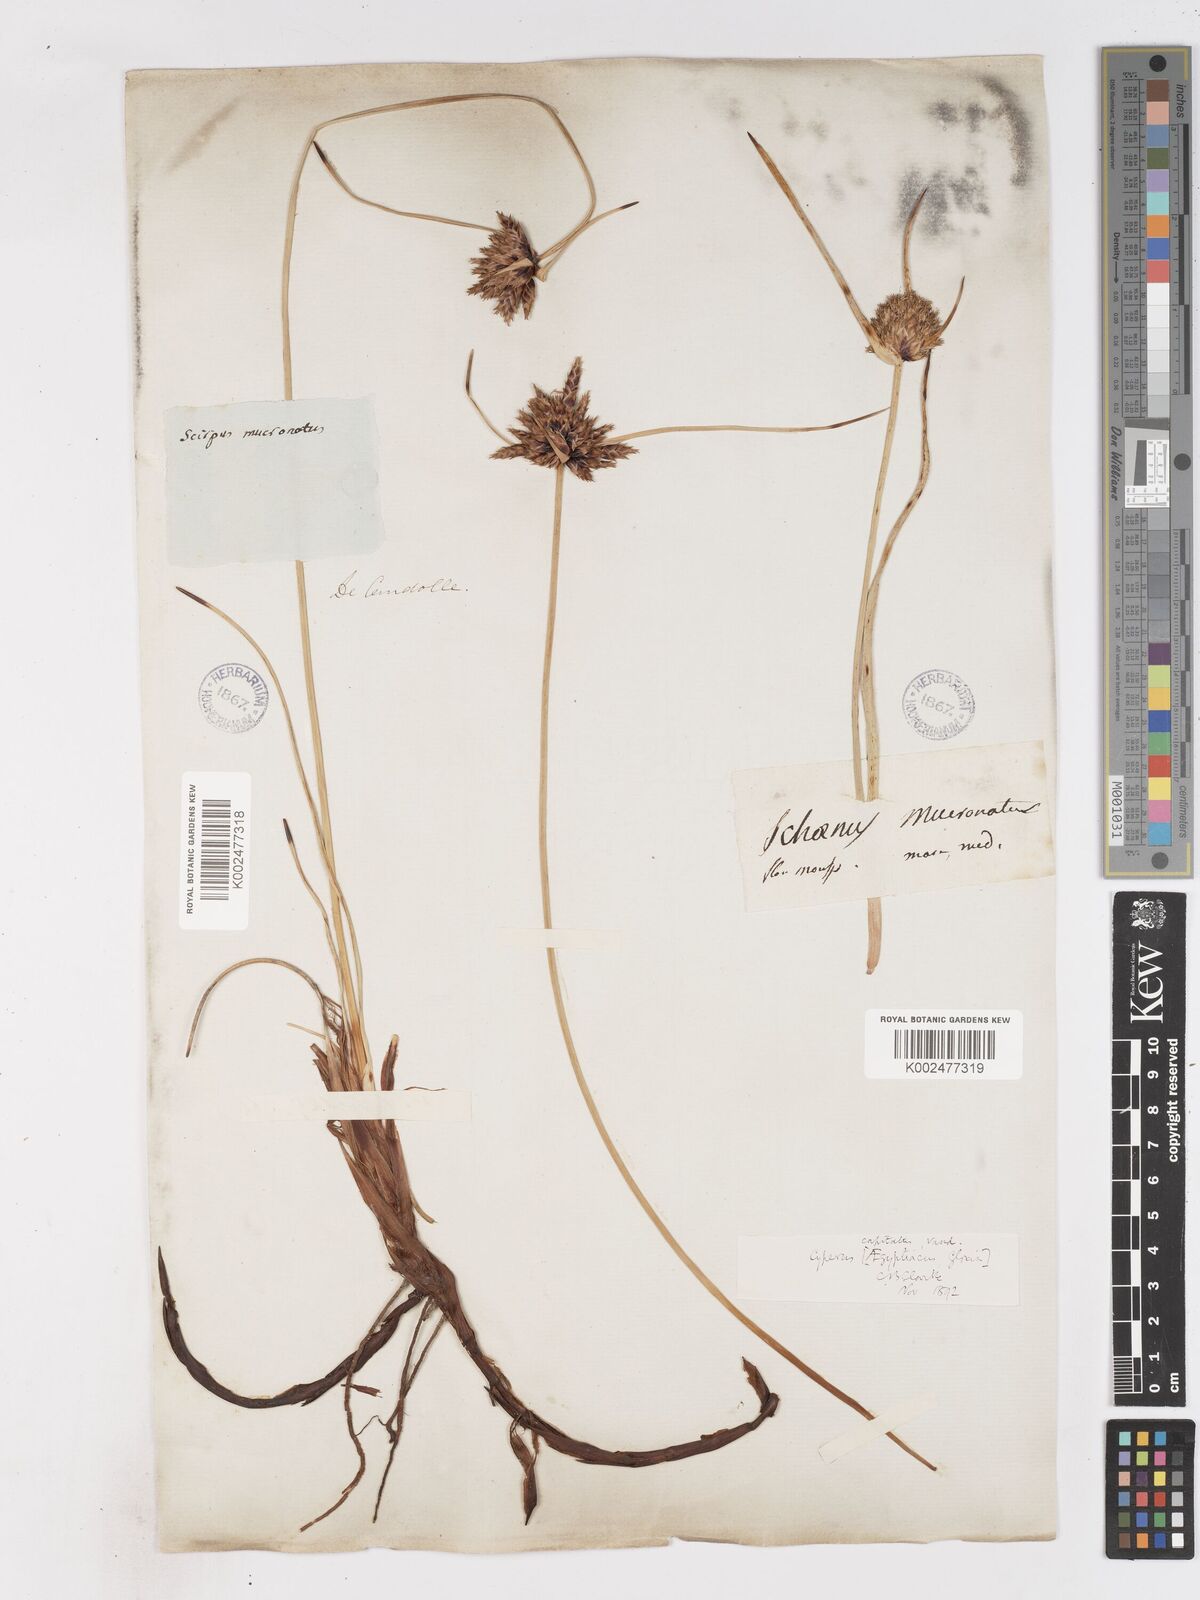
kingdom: Plantae
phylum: Tracheophyta
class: Liliopsida
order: Poales
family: Cyperaceae
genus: Cyperus
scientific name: Cyperus capitatus
